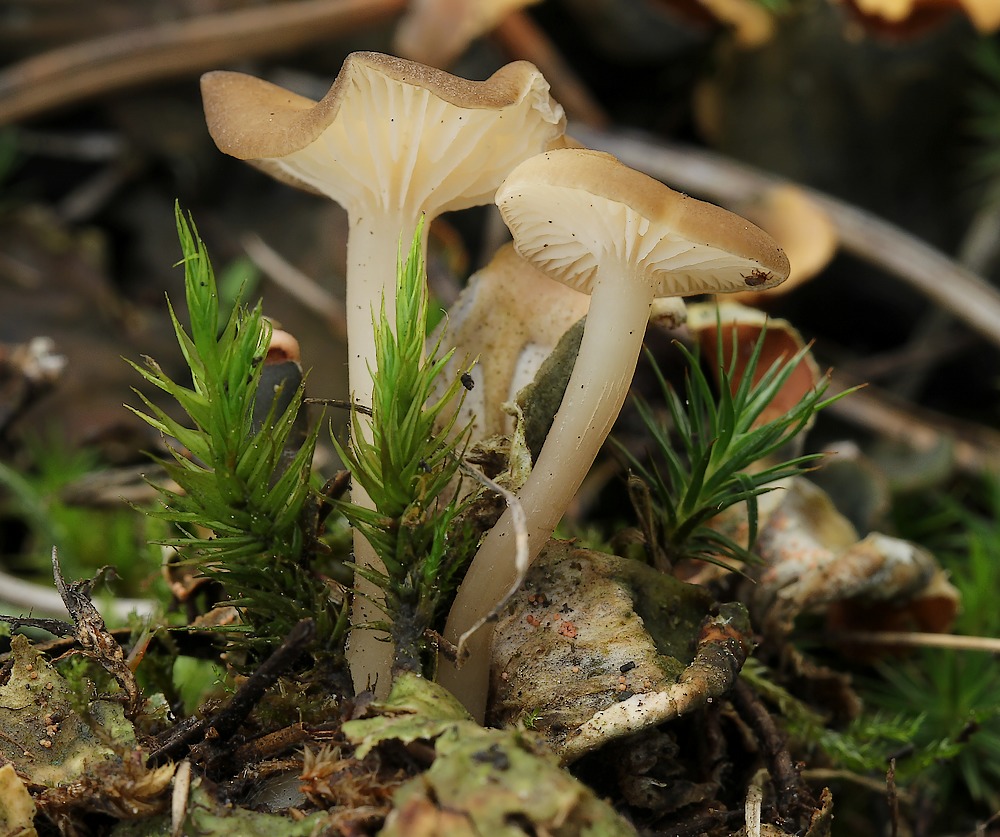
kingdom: Fungi
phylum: Basidiomycota
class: Agaricomycetes
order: Agaricales
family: Tricholomataceae
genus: Gamundia
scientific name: Gamundia xerophila
